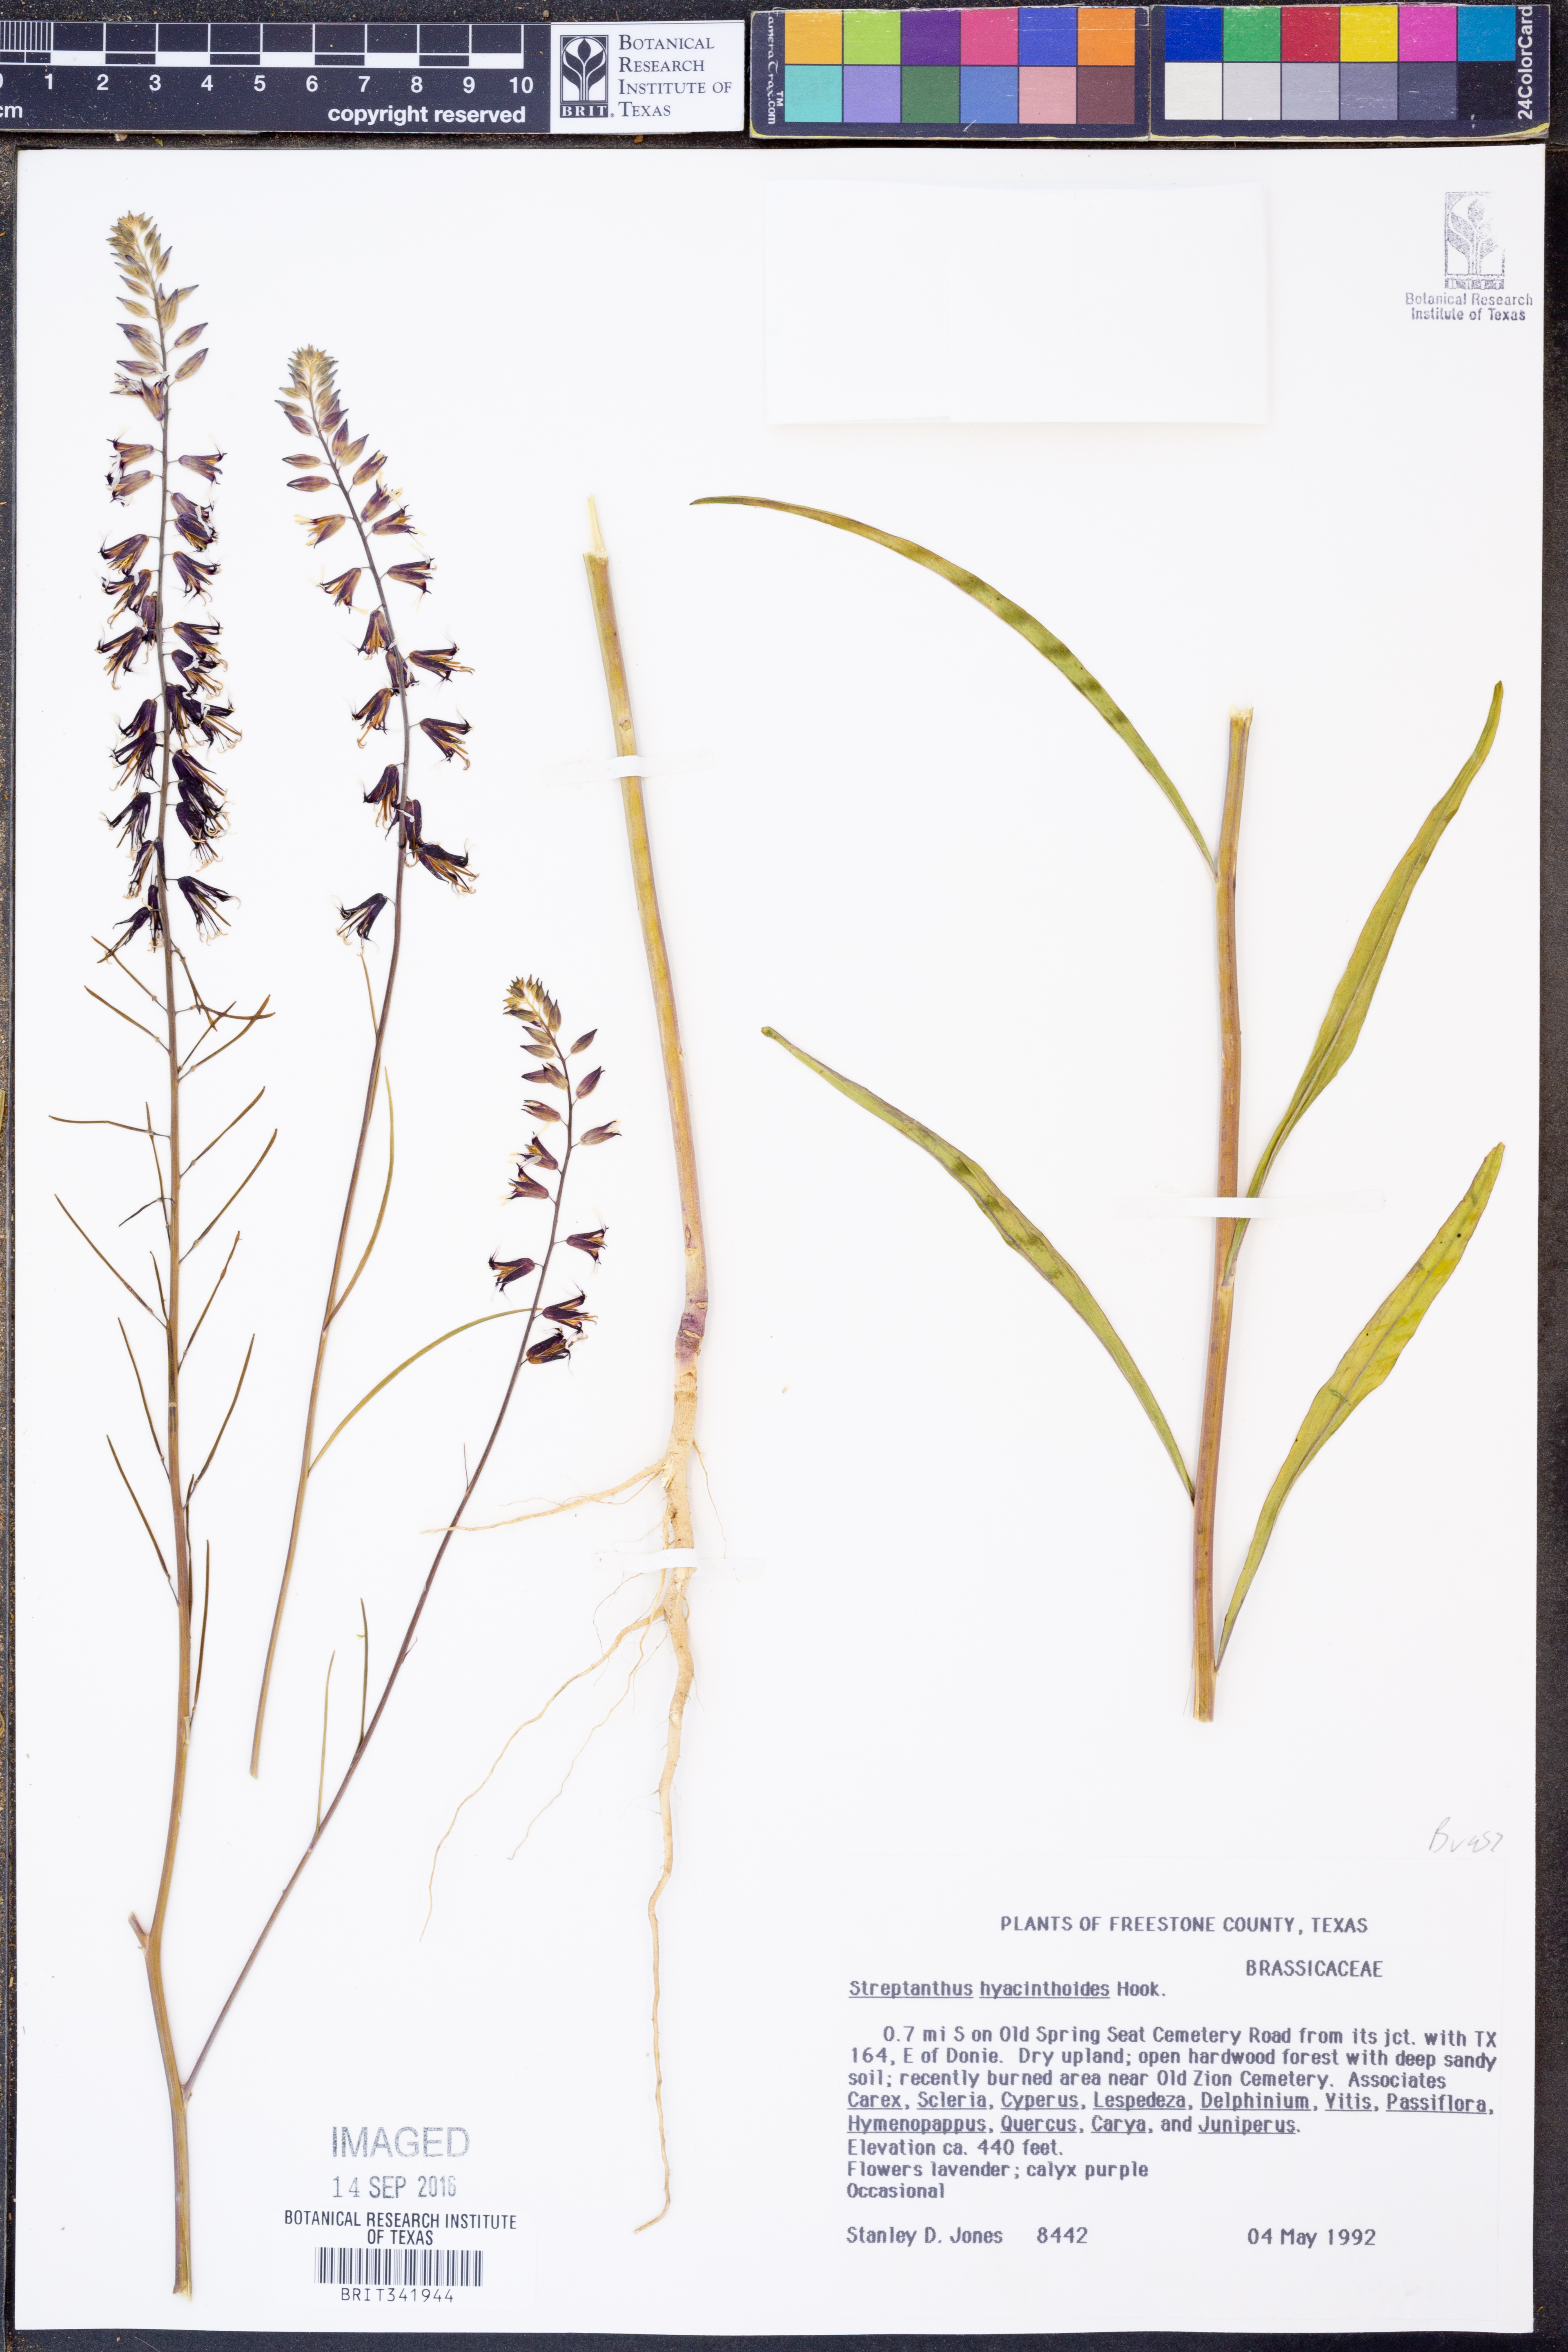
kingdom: Plantae
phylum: Tracheophyta
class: Magnoliopsida
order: Brassicales
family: Brassicaceae
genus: Streptanthus
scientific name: Streptanthus hyacinthoides
